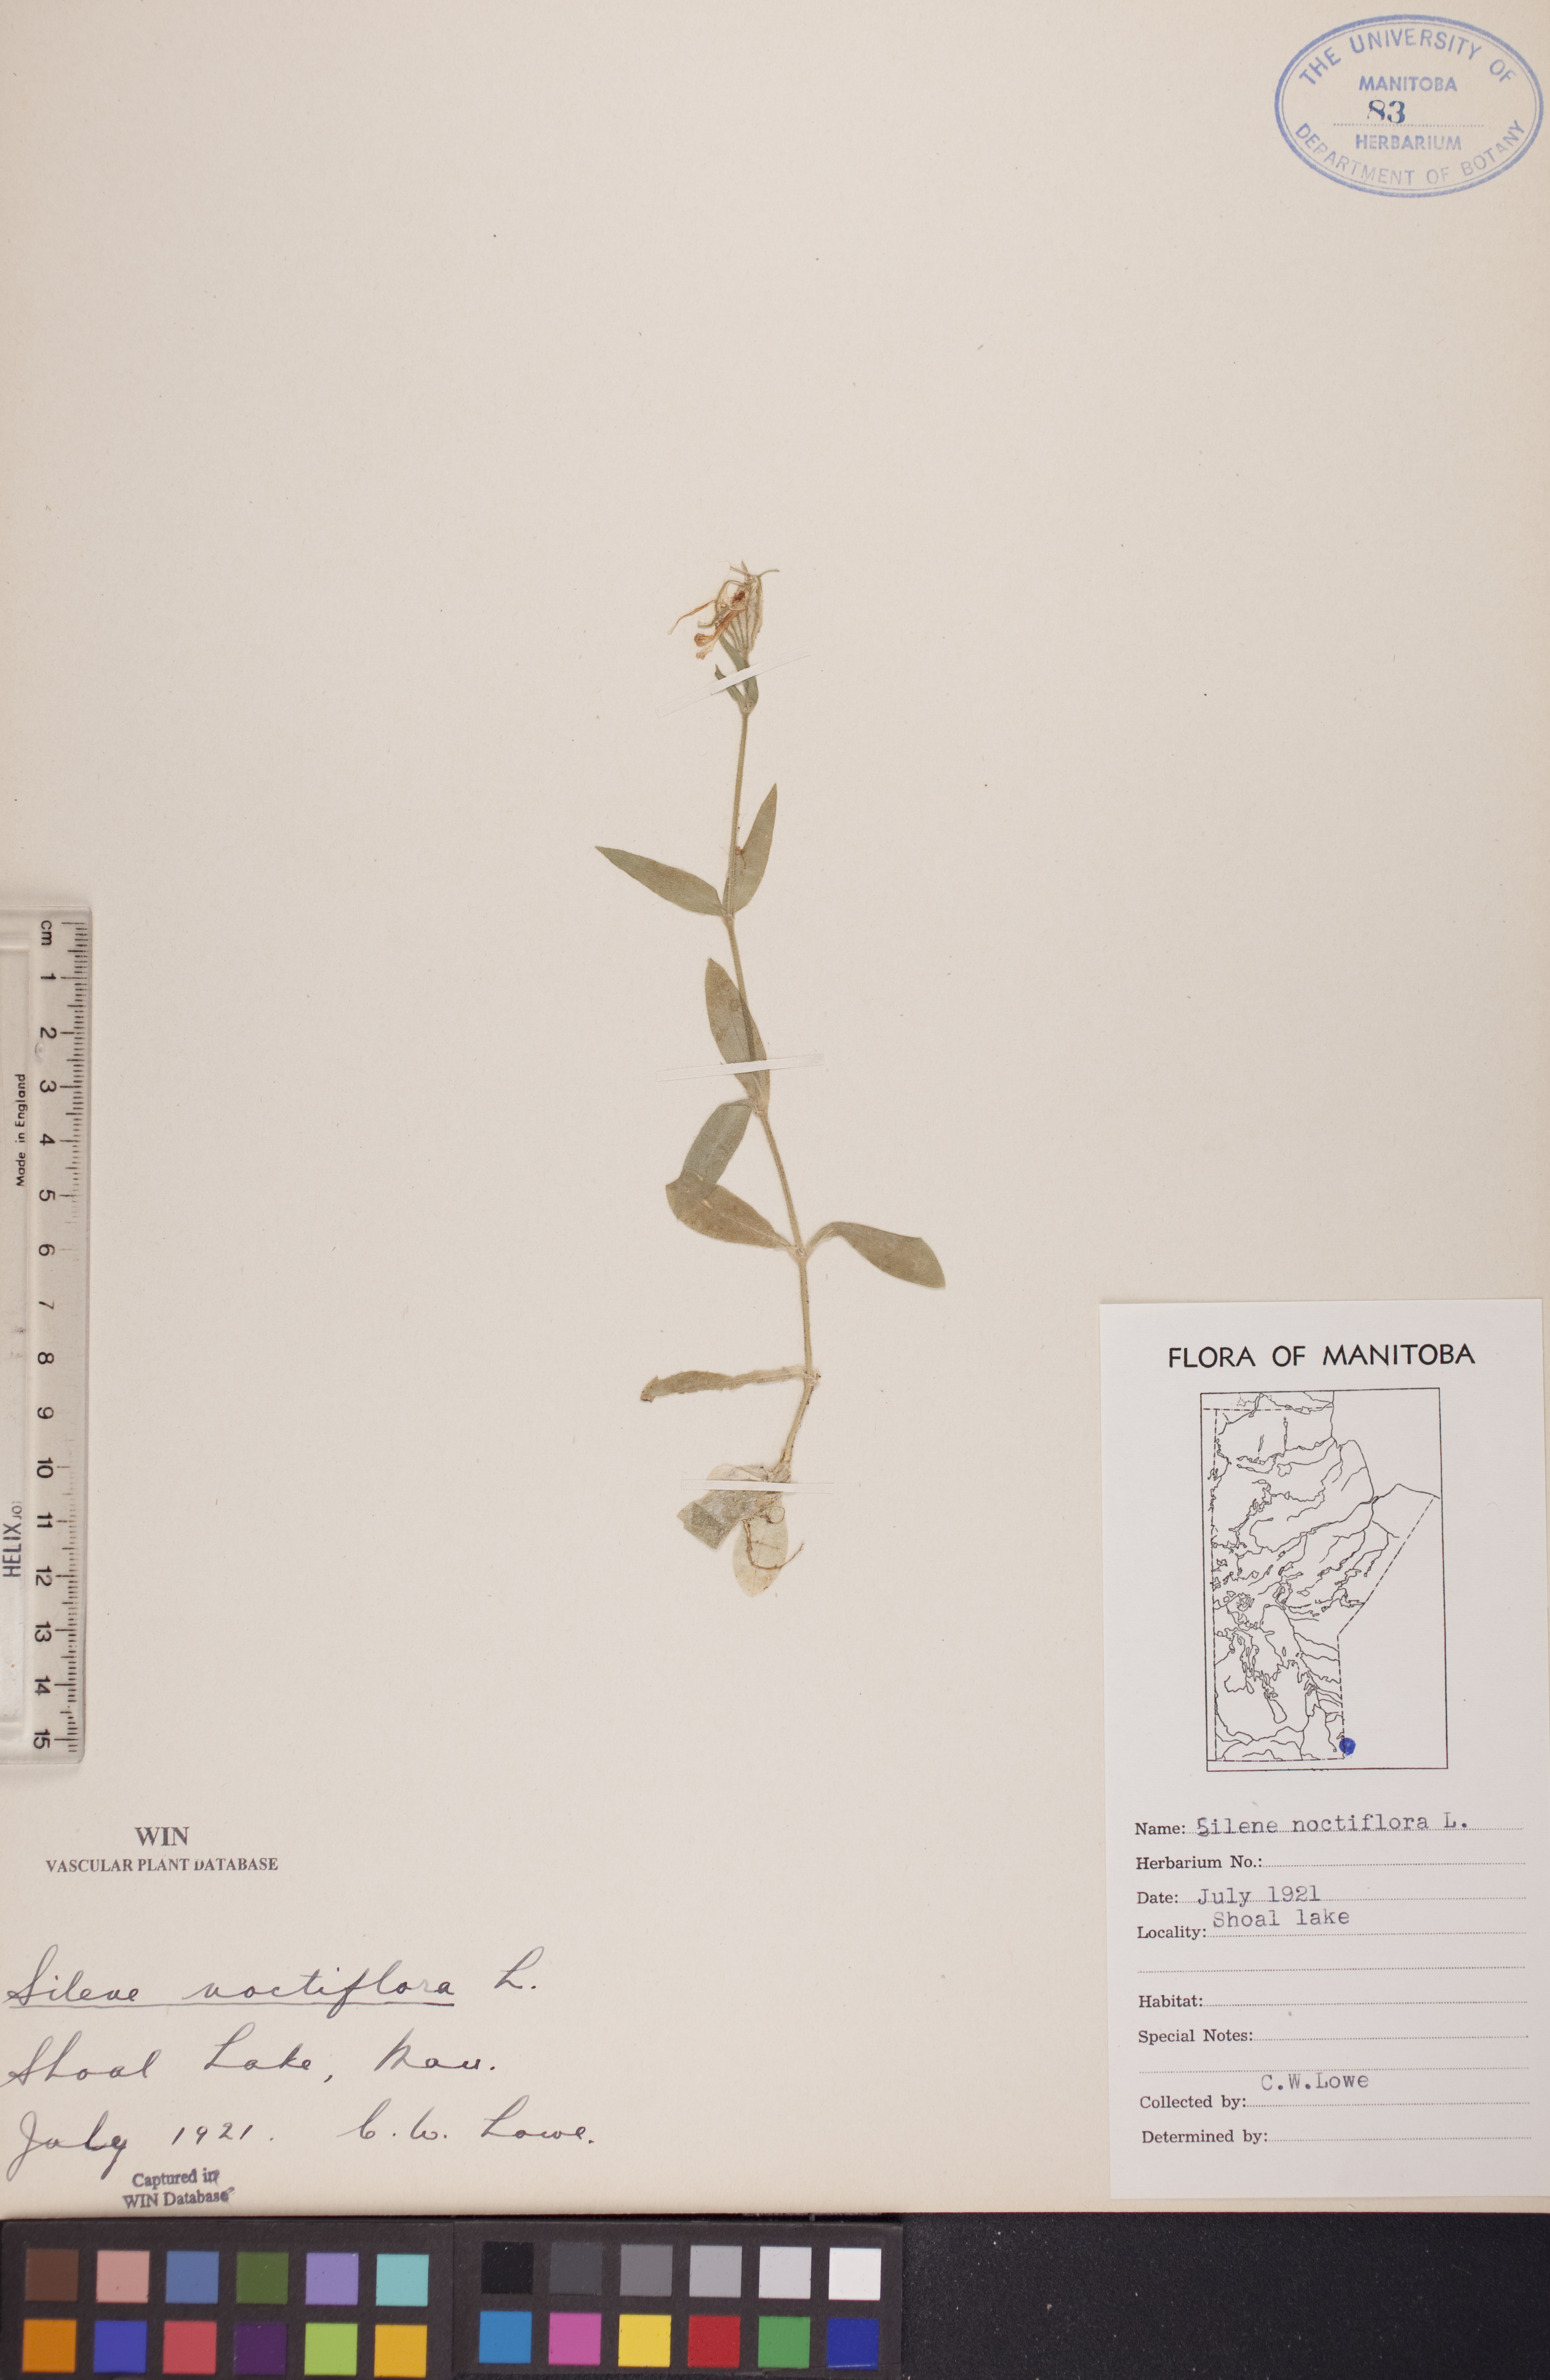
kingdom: Plantae
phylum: Tracheophyta
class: Magnoliopsida
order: Caryophyllales
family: Caryophyllaceae
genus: Silene
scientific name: Silene noctiflora
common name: Night-flowering catchfly
